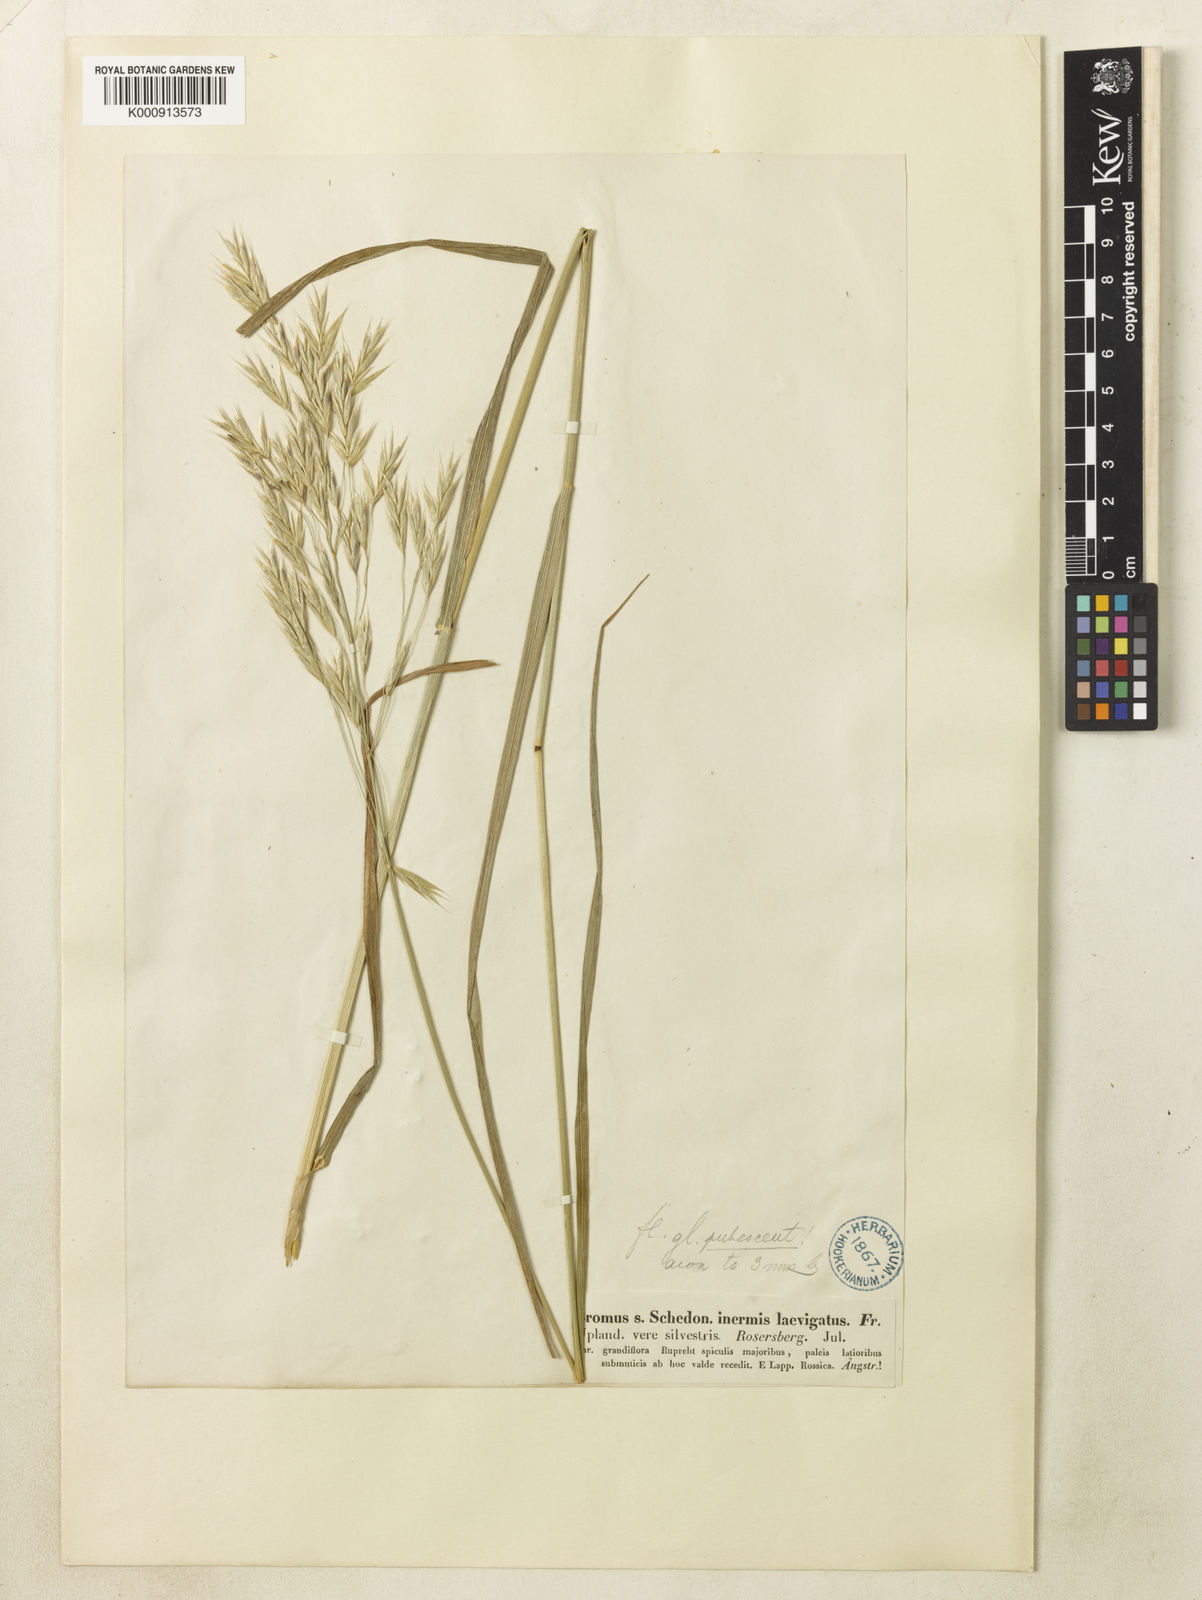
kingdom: Plantae
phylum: Tracheophyta
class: Liliopsida
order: Poales
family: Poaceae
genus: Bromus
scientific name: Bromus inermis
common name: Smooth brome
